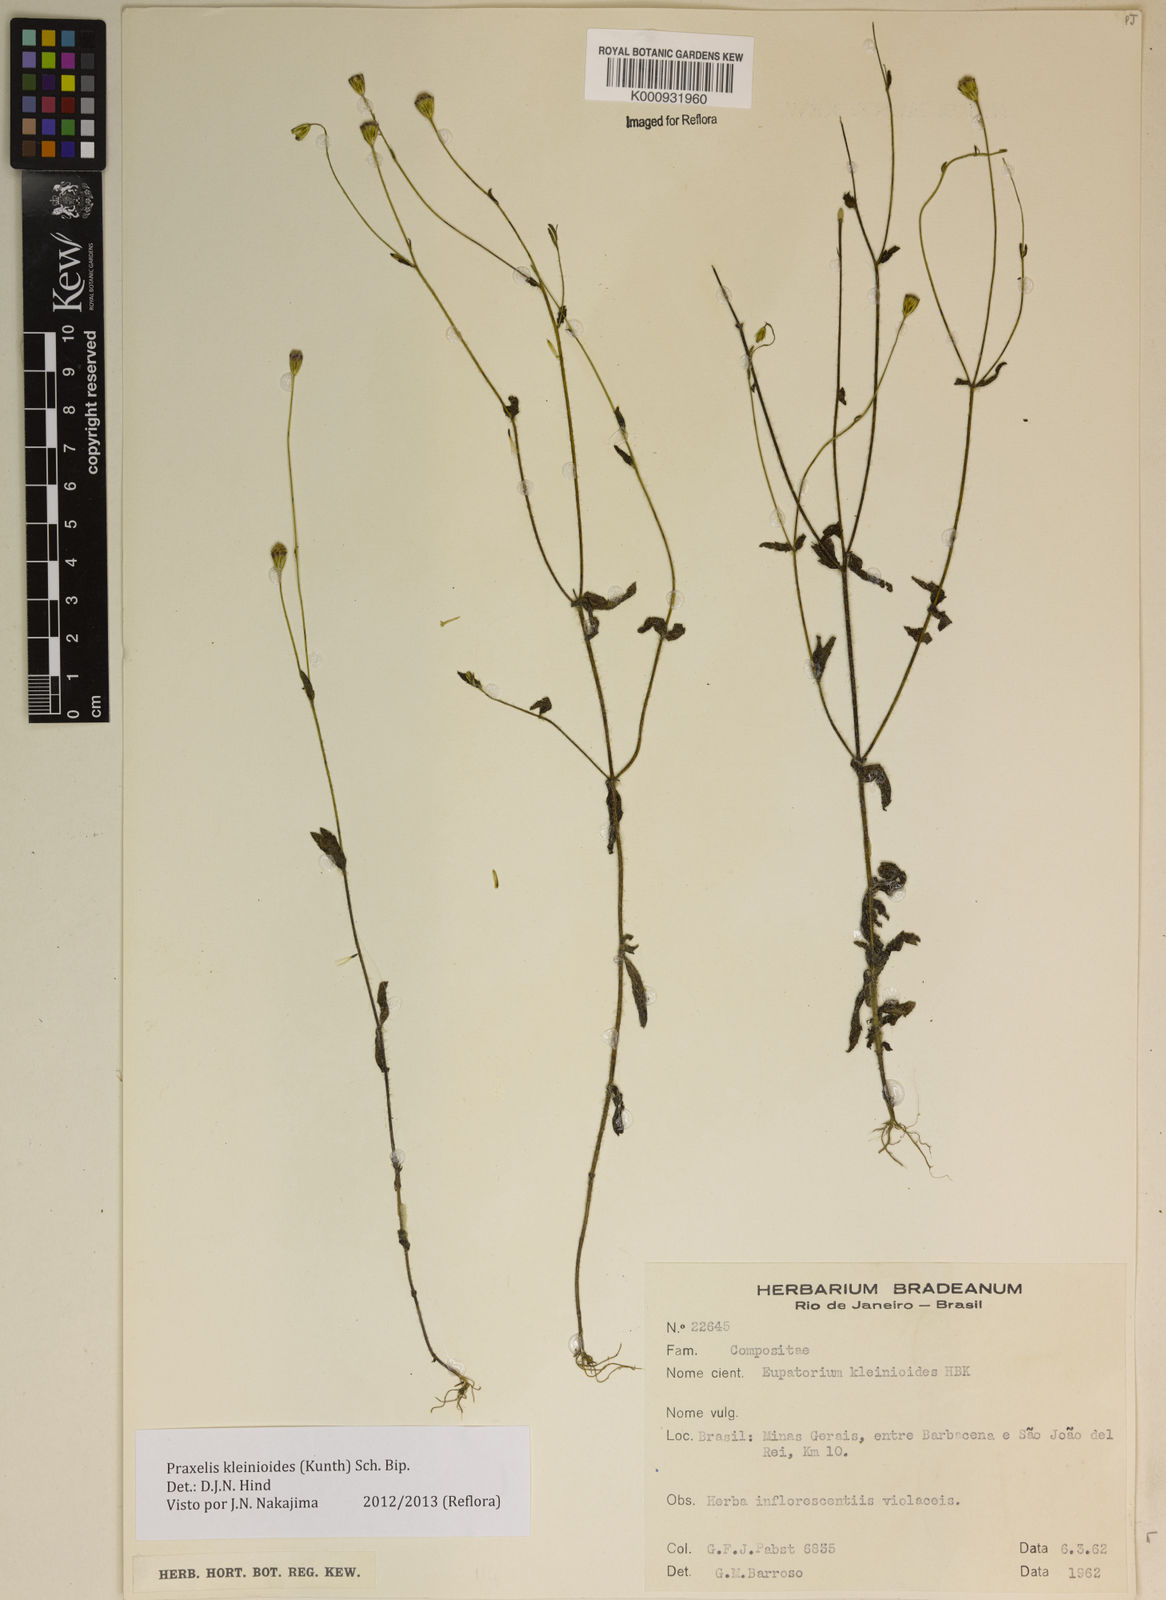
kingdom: Plantae
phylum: Tracheophyta
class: Magnoliopsida
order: Asterales
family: Asteraceae
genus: Praxelis
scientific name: Praxelis kleinioides
